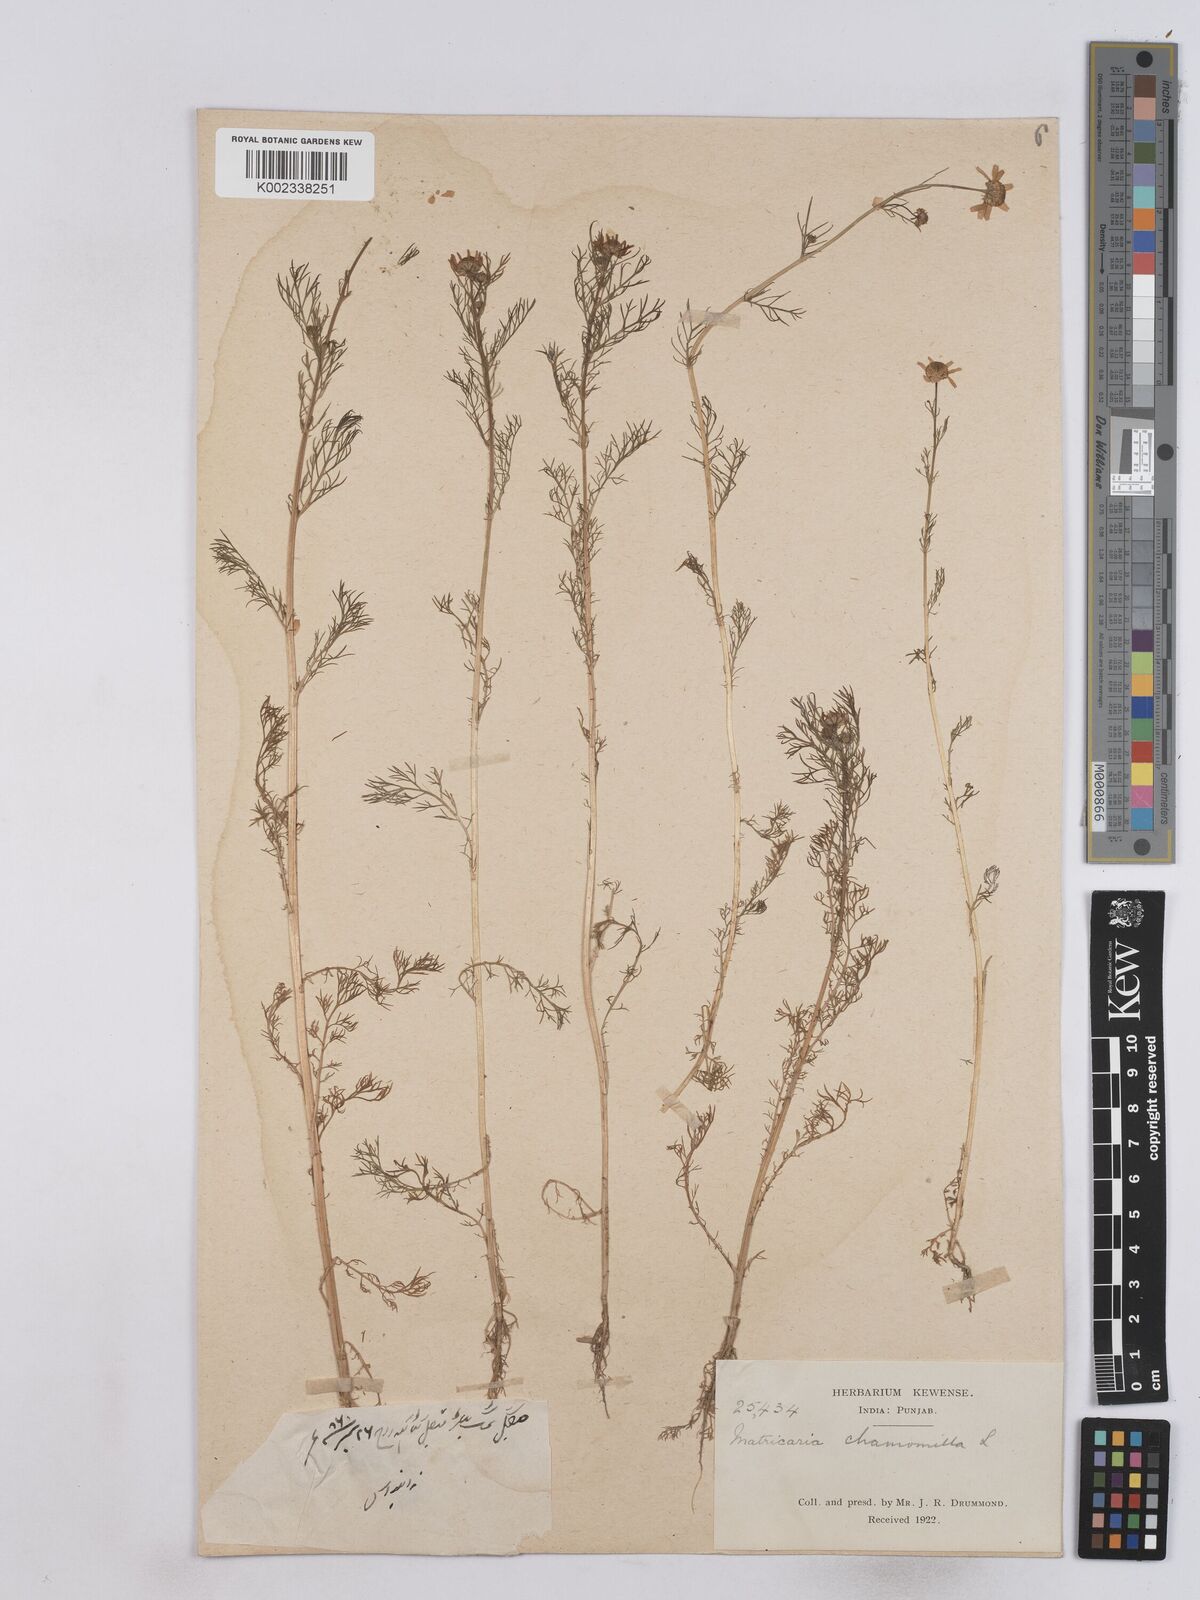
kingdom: Plantae
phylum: Tracheophyta
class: Magnoliopsida
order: Asterales
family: Asteraceae
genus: Matricaria
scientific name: Matricaria chamomilla
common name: Scented mayweed
